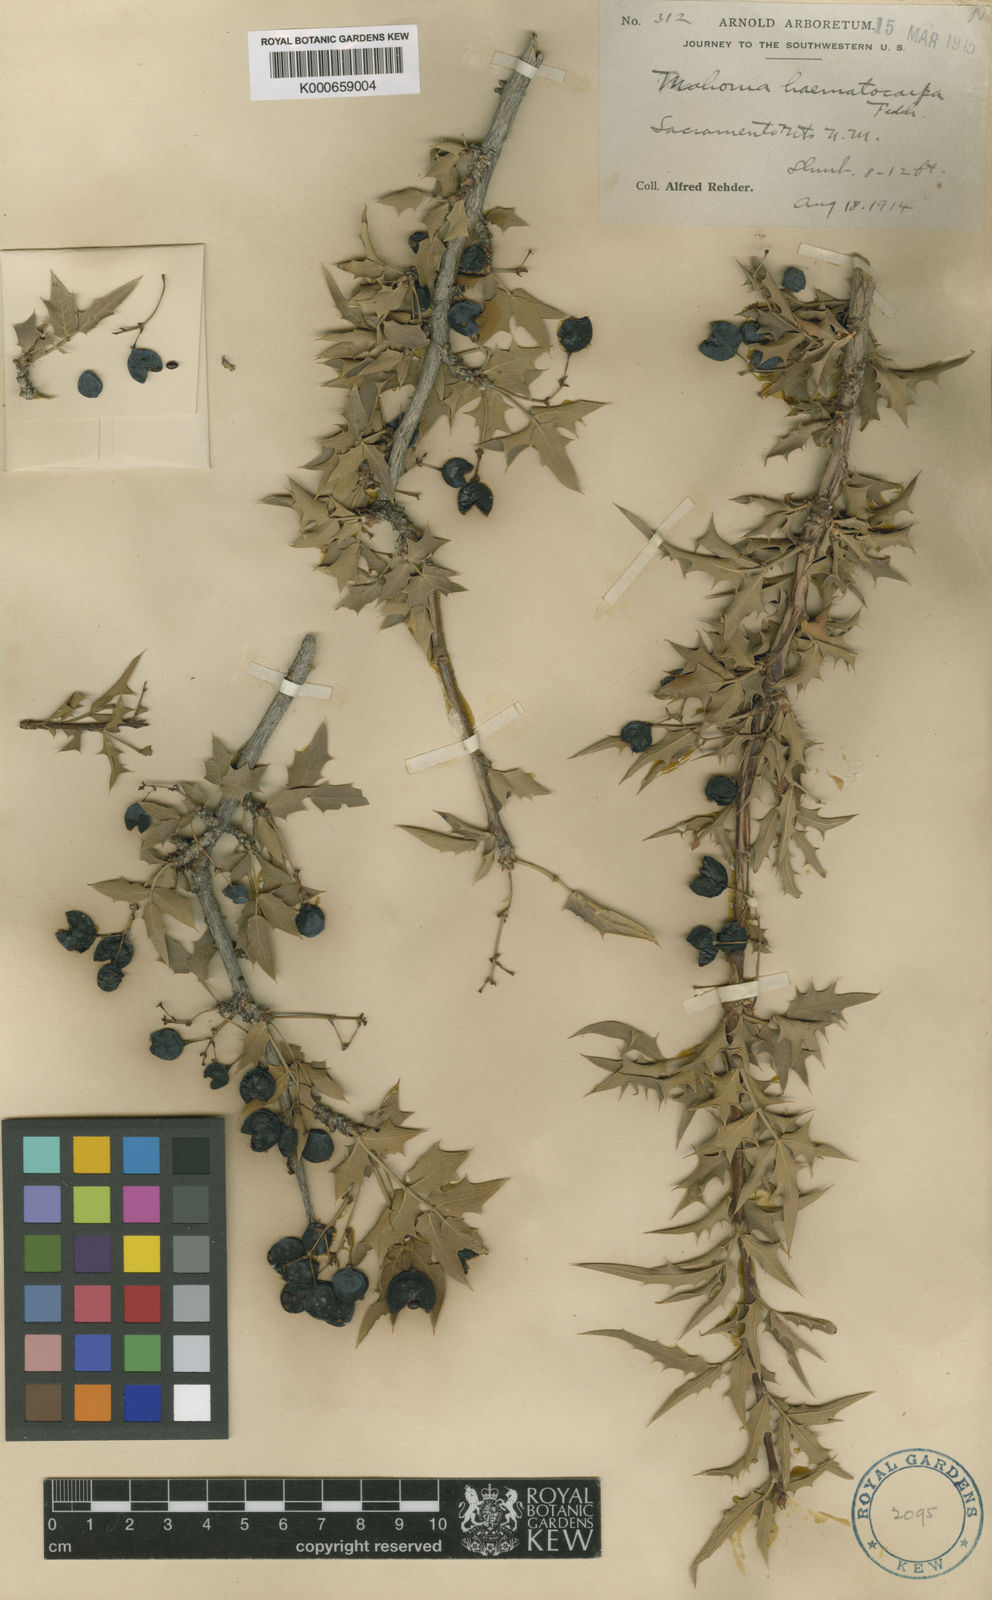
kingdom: Plantae
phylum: Tracheophyta
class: Magnoliopsida
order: Ranunculales
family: Berberidaceae
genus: Alloberberis
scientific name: Alloberberis haematocarpa
